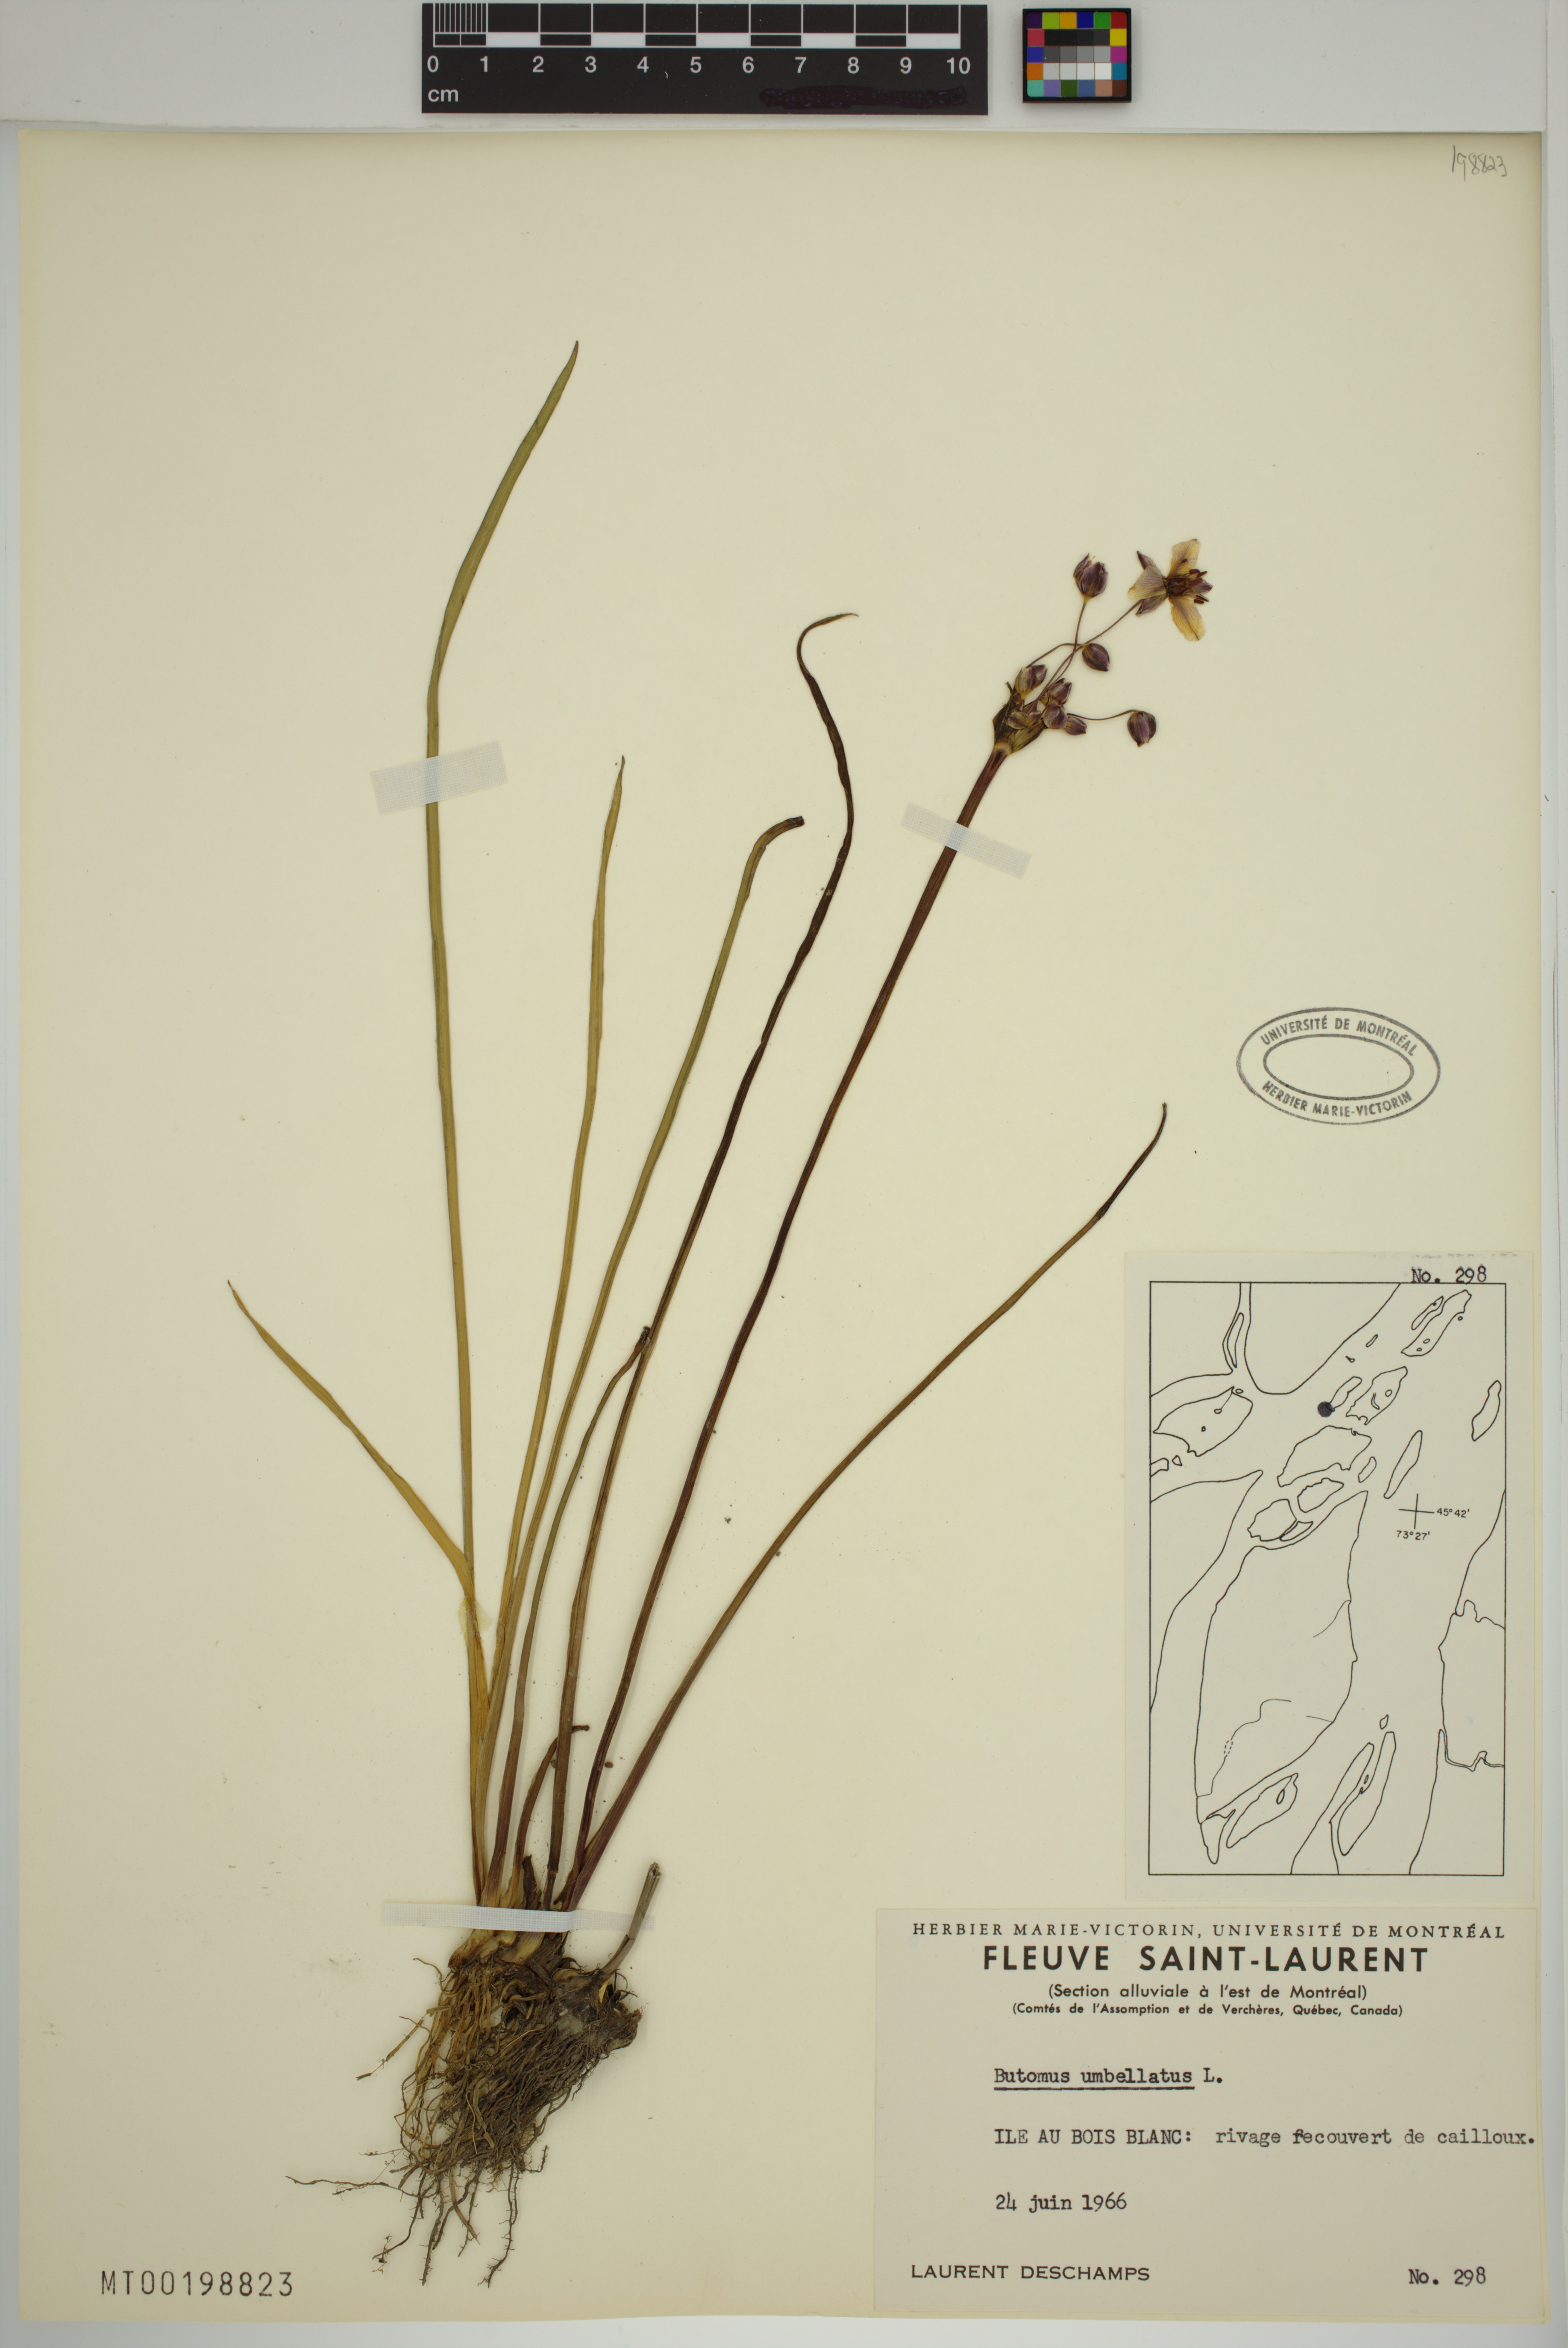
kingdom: Plantae
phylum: Tracheophyta
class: Liliopsida
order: Alismatales
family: Butomaceae
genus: Butomus
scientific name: Butomus umbellatus
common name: Flowering-rush
